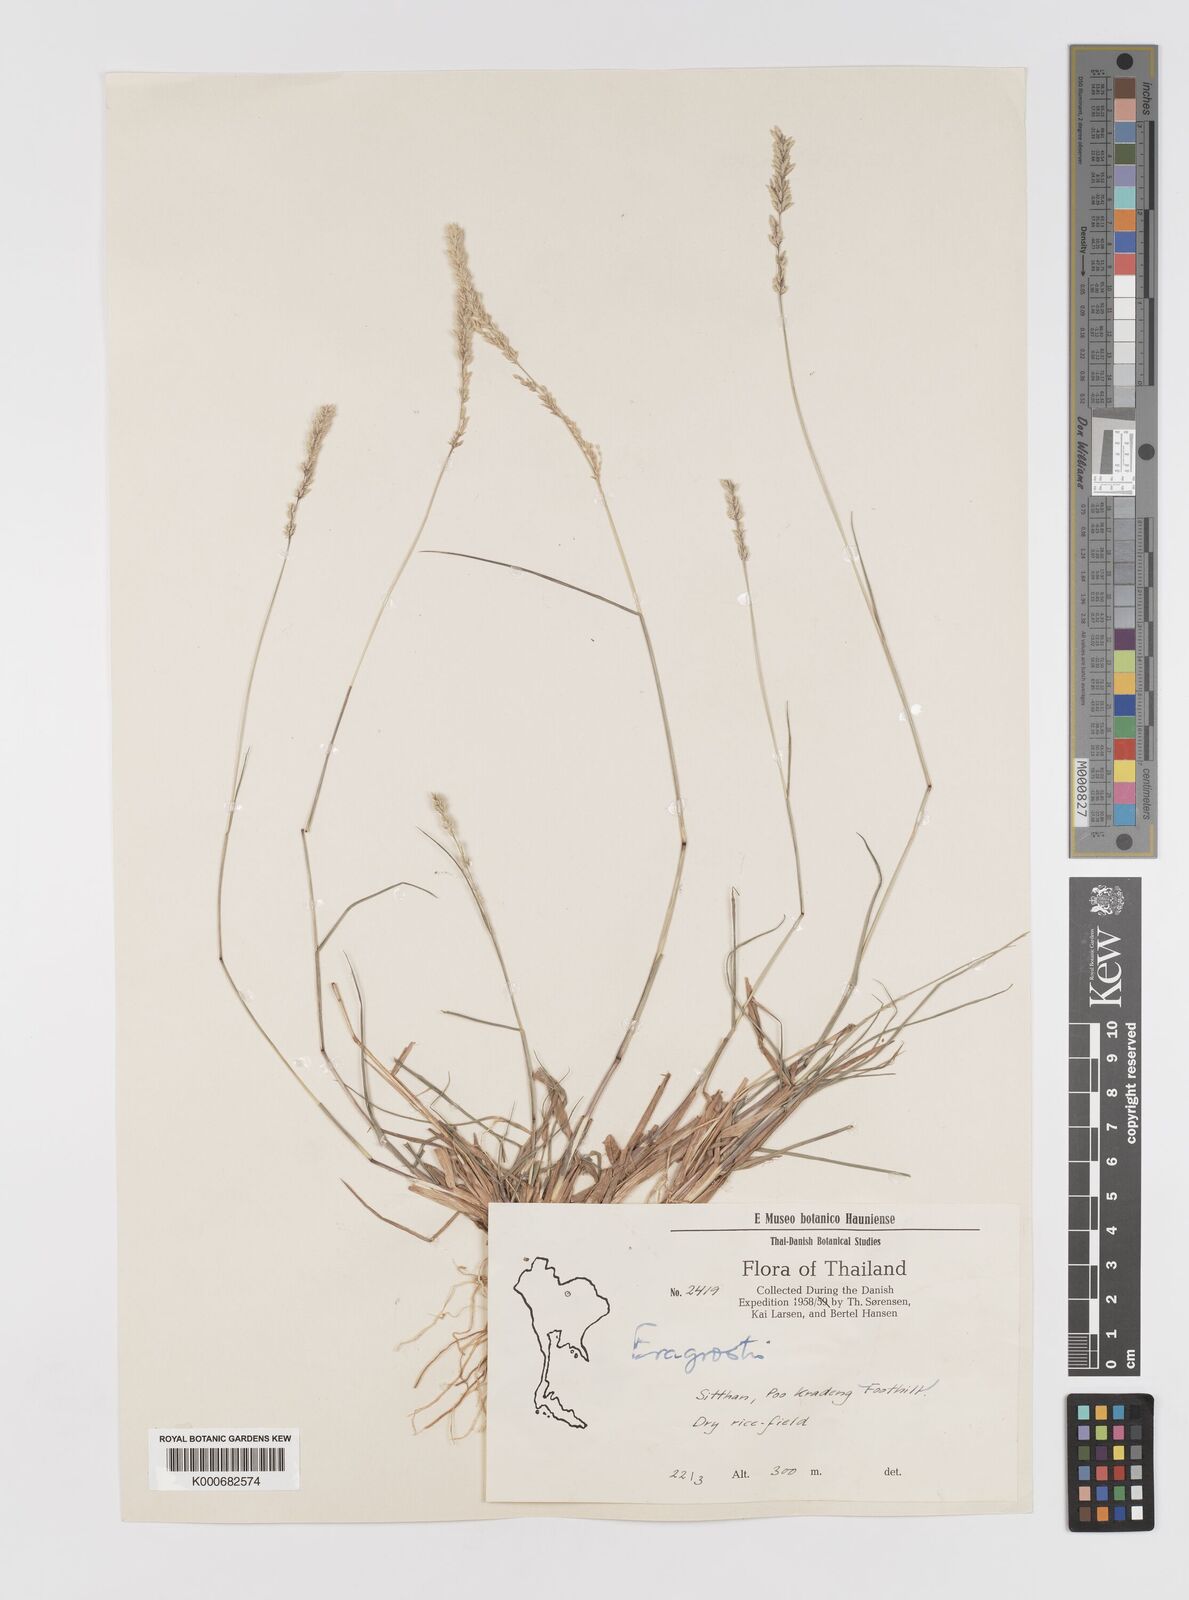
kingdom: Plantae
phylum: Tracheophyta
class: Liliopsida
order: Poales
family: Poaceae
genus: Eragrostis
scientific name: Eragrostis
